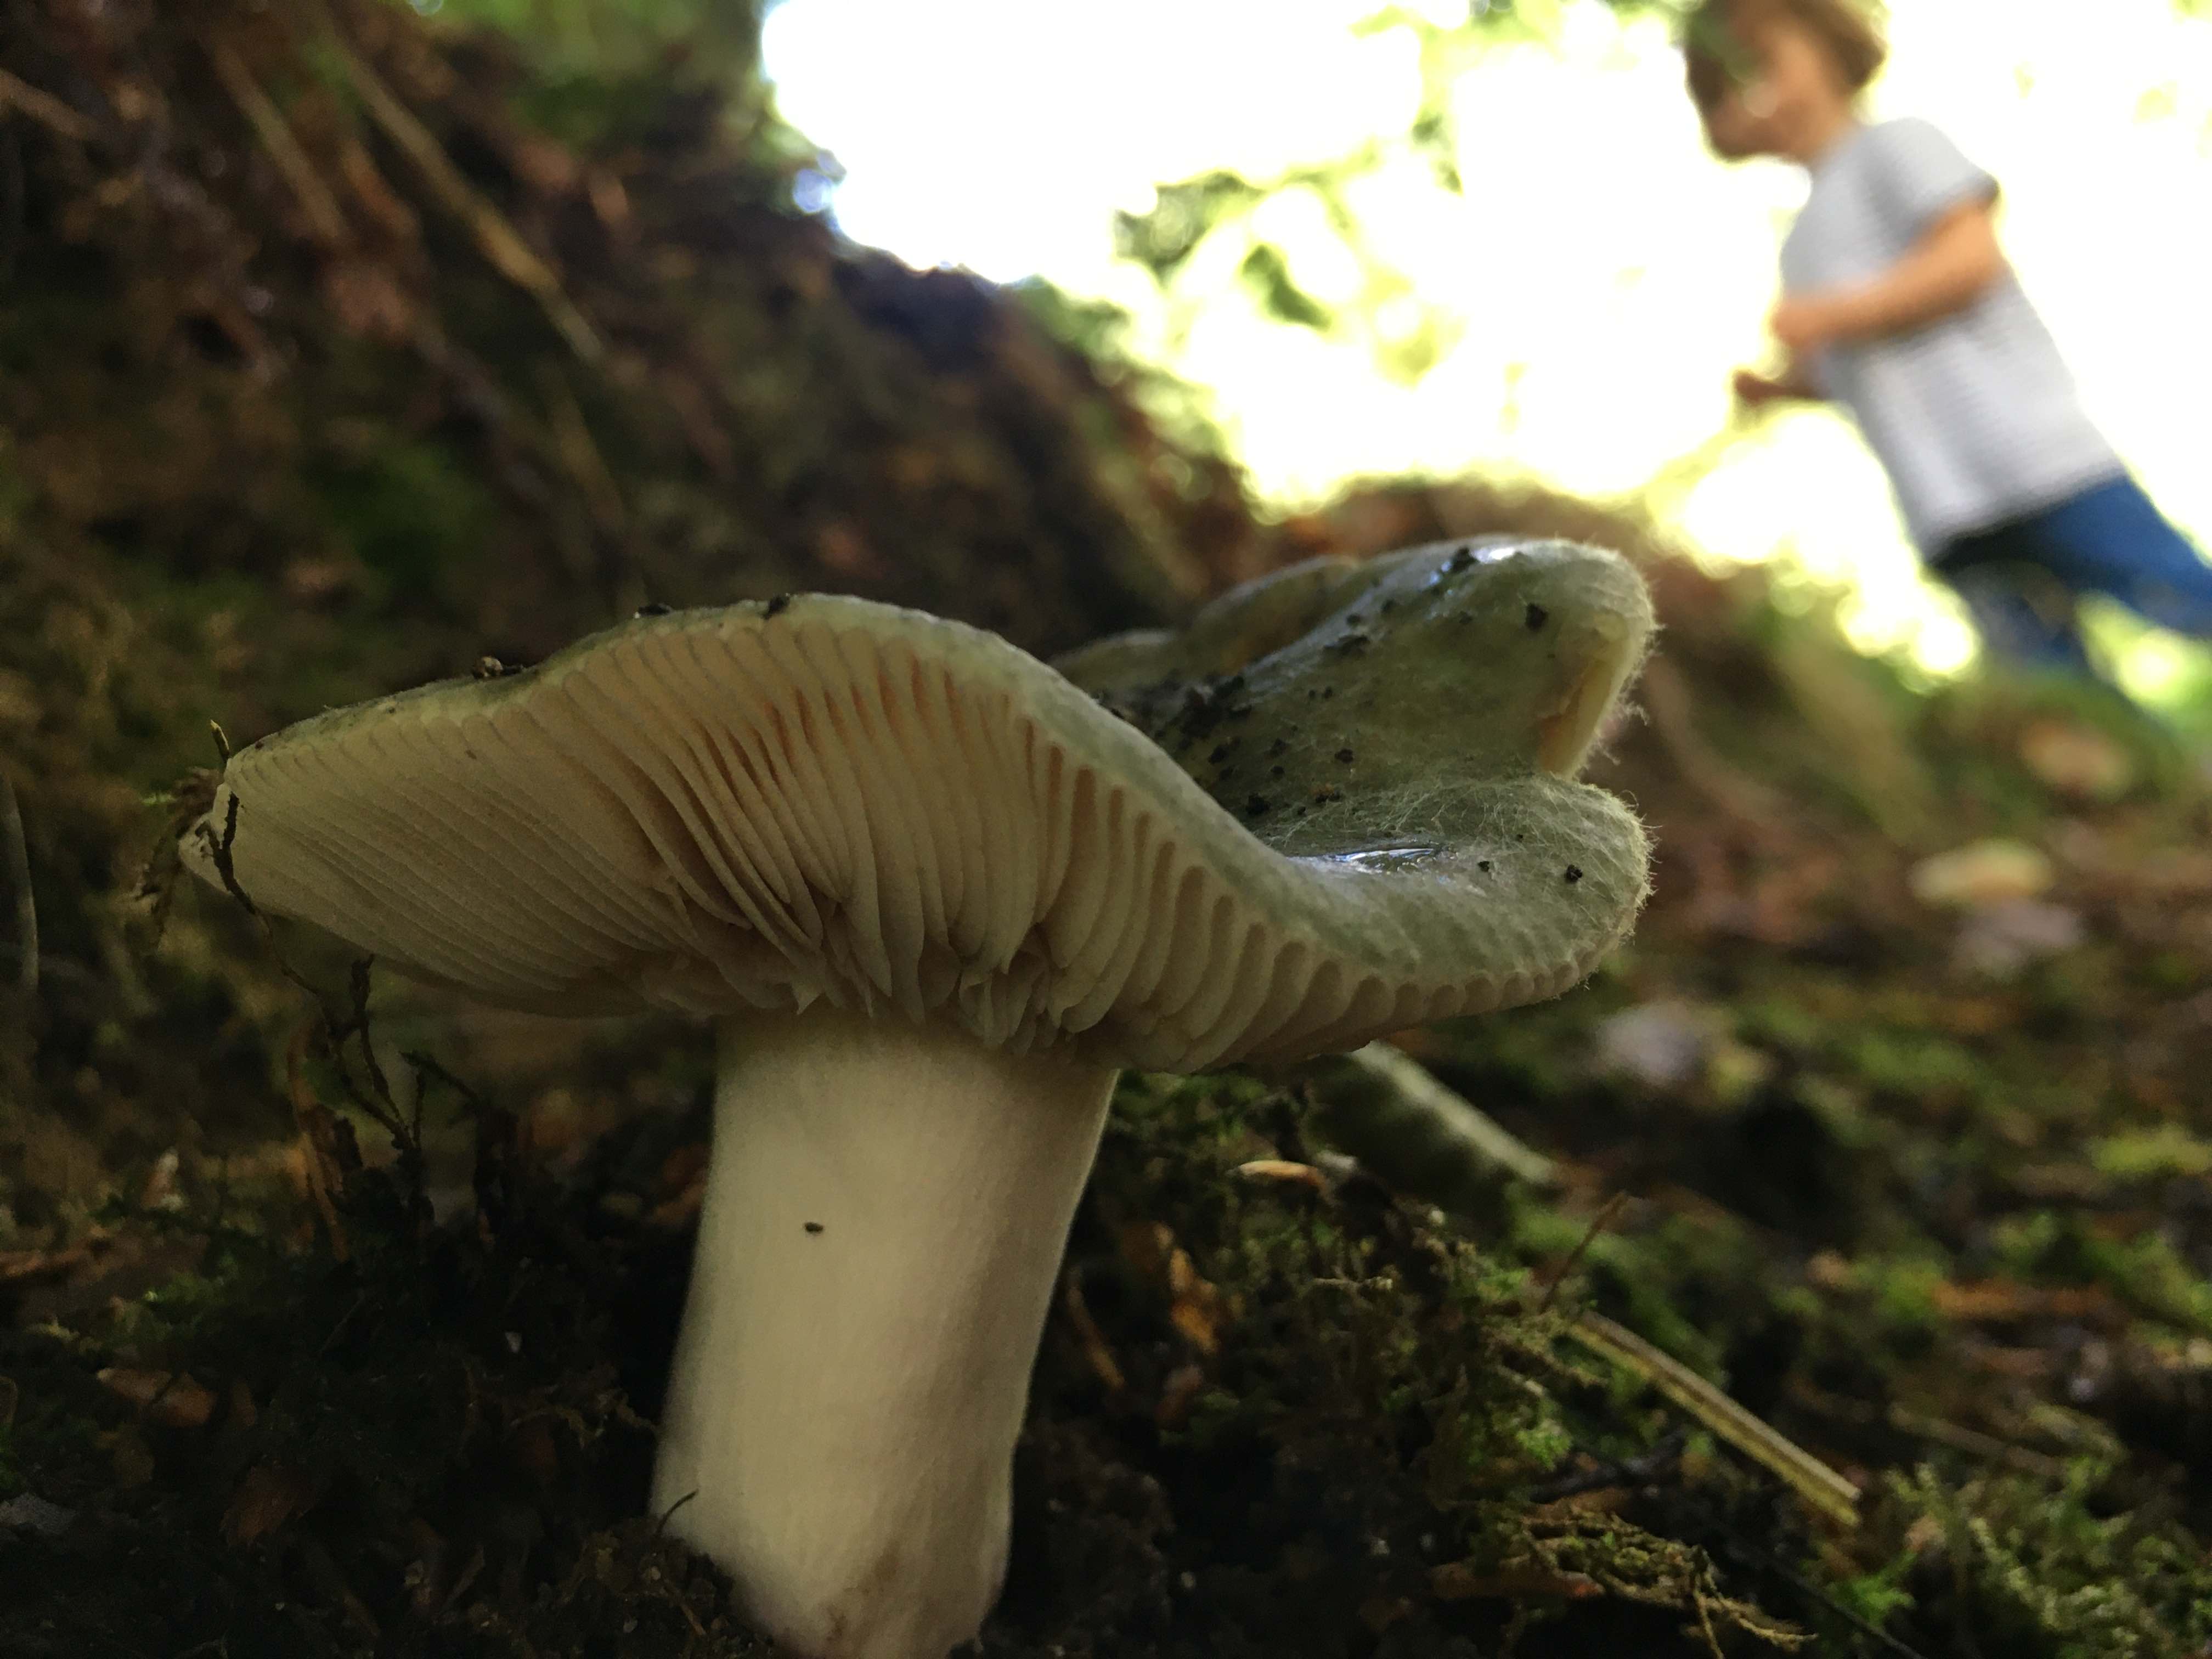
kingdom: Fungi
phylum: Basidiomycota
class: Agaricomycetes
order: Russulales
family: Russulaceae
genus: Russula
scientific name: Russula
